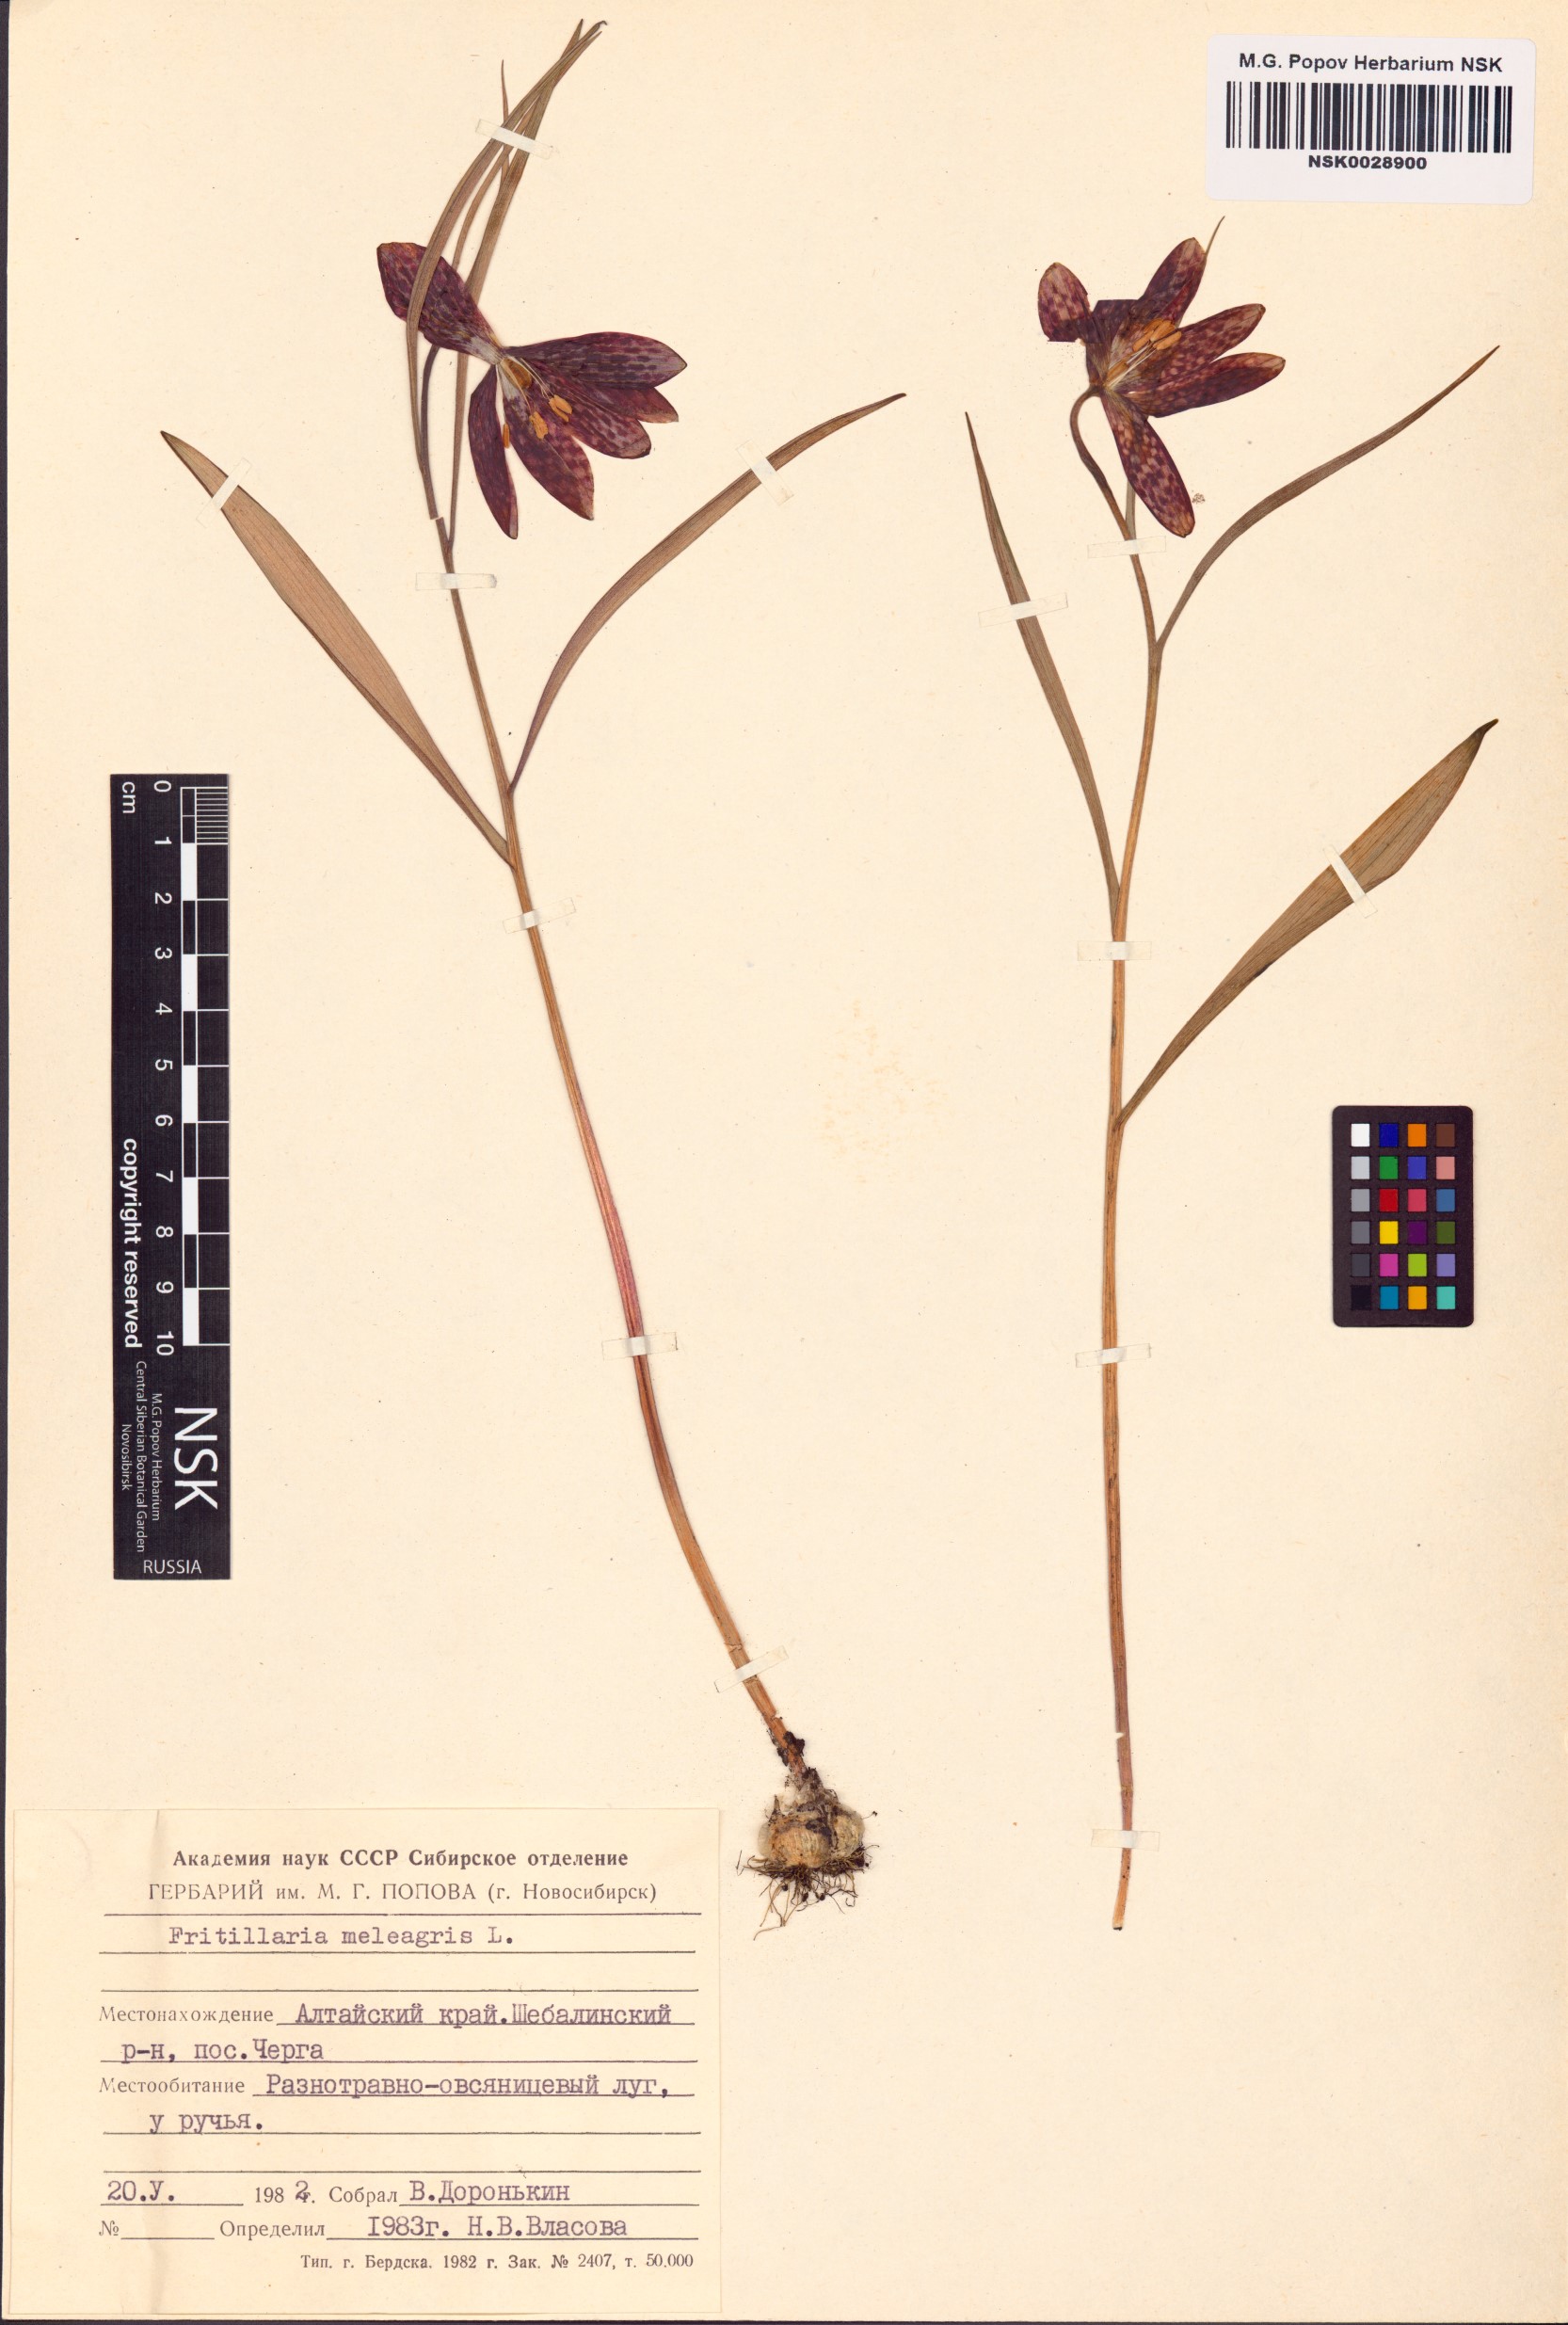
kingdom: Plantae
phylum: Tracheophyta
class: Liliopsida
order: Liliales
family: Liliaceae
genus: Fritillaria
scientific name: Fritillaria meleagris
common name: Fritillary
